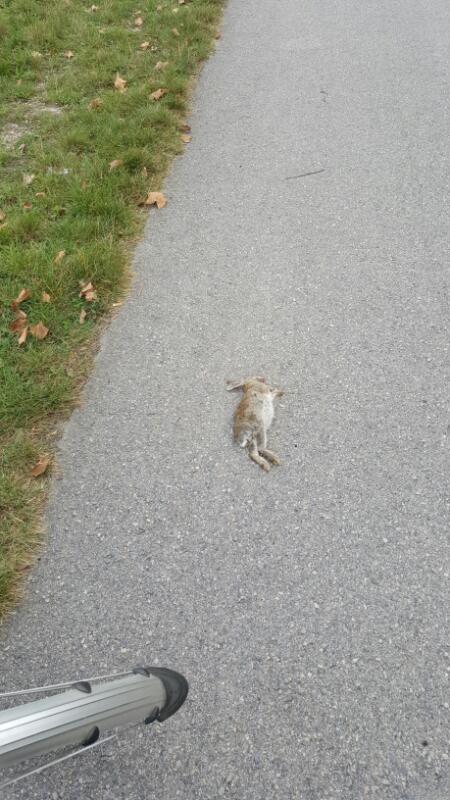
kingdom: Animalia
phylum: Chordata
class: Mammalia
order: Lagomorpha
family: Leporidae
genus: Oryctolagus
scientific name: Oryctolagus cuniculus
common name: European rabbit
